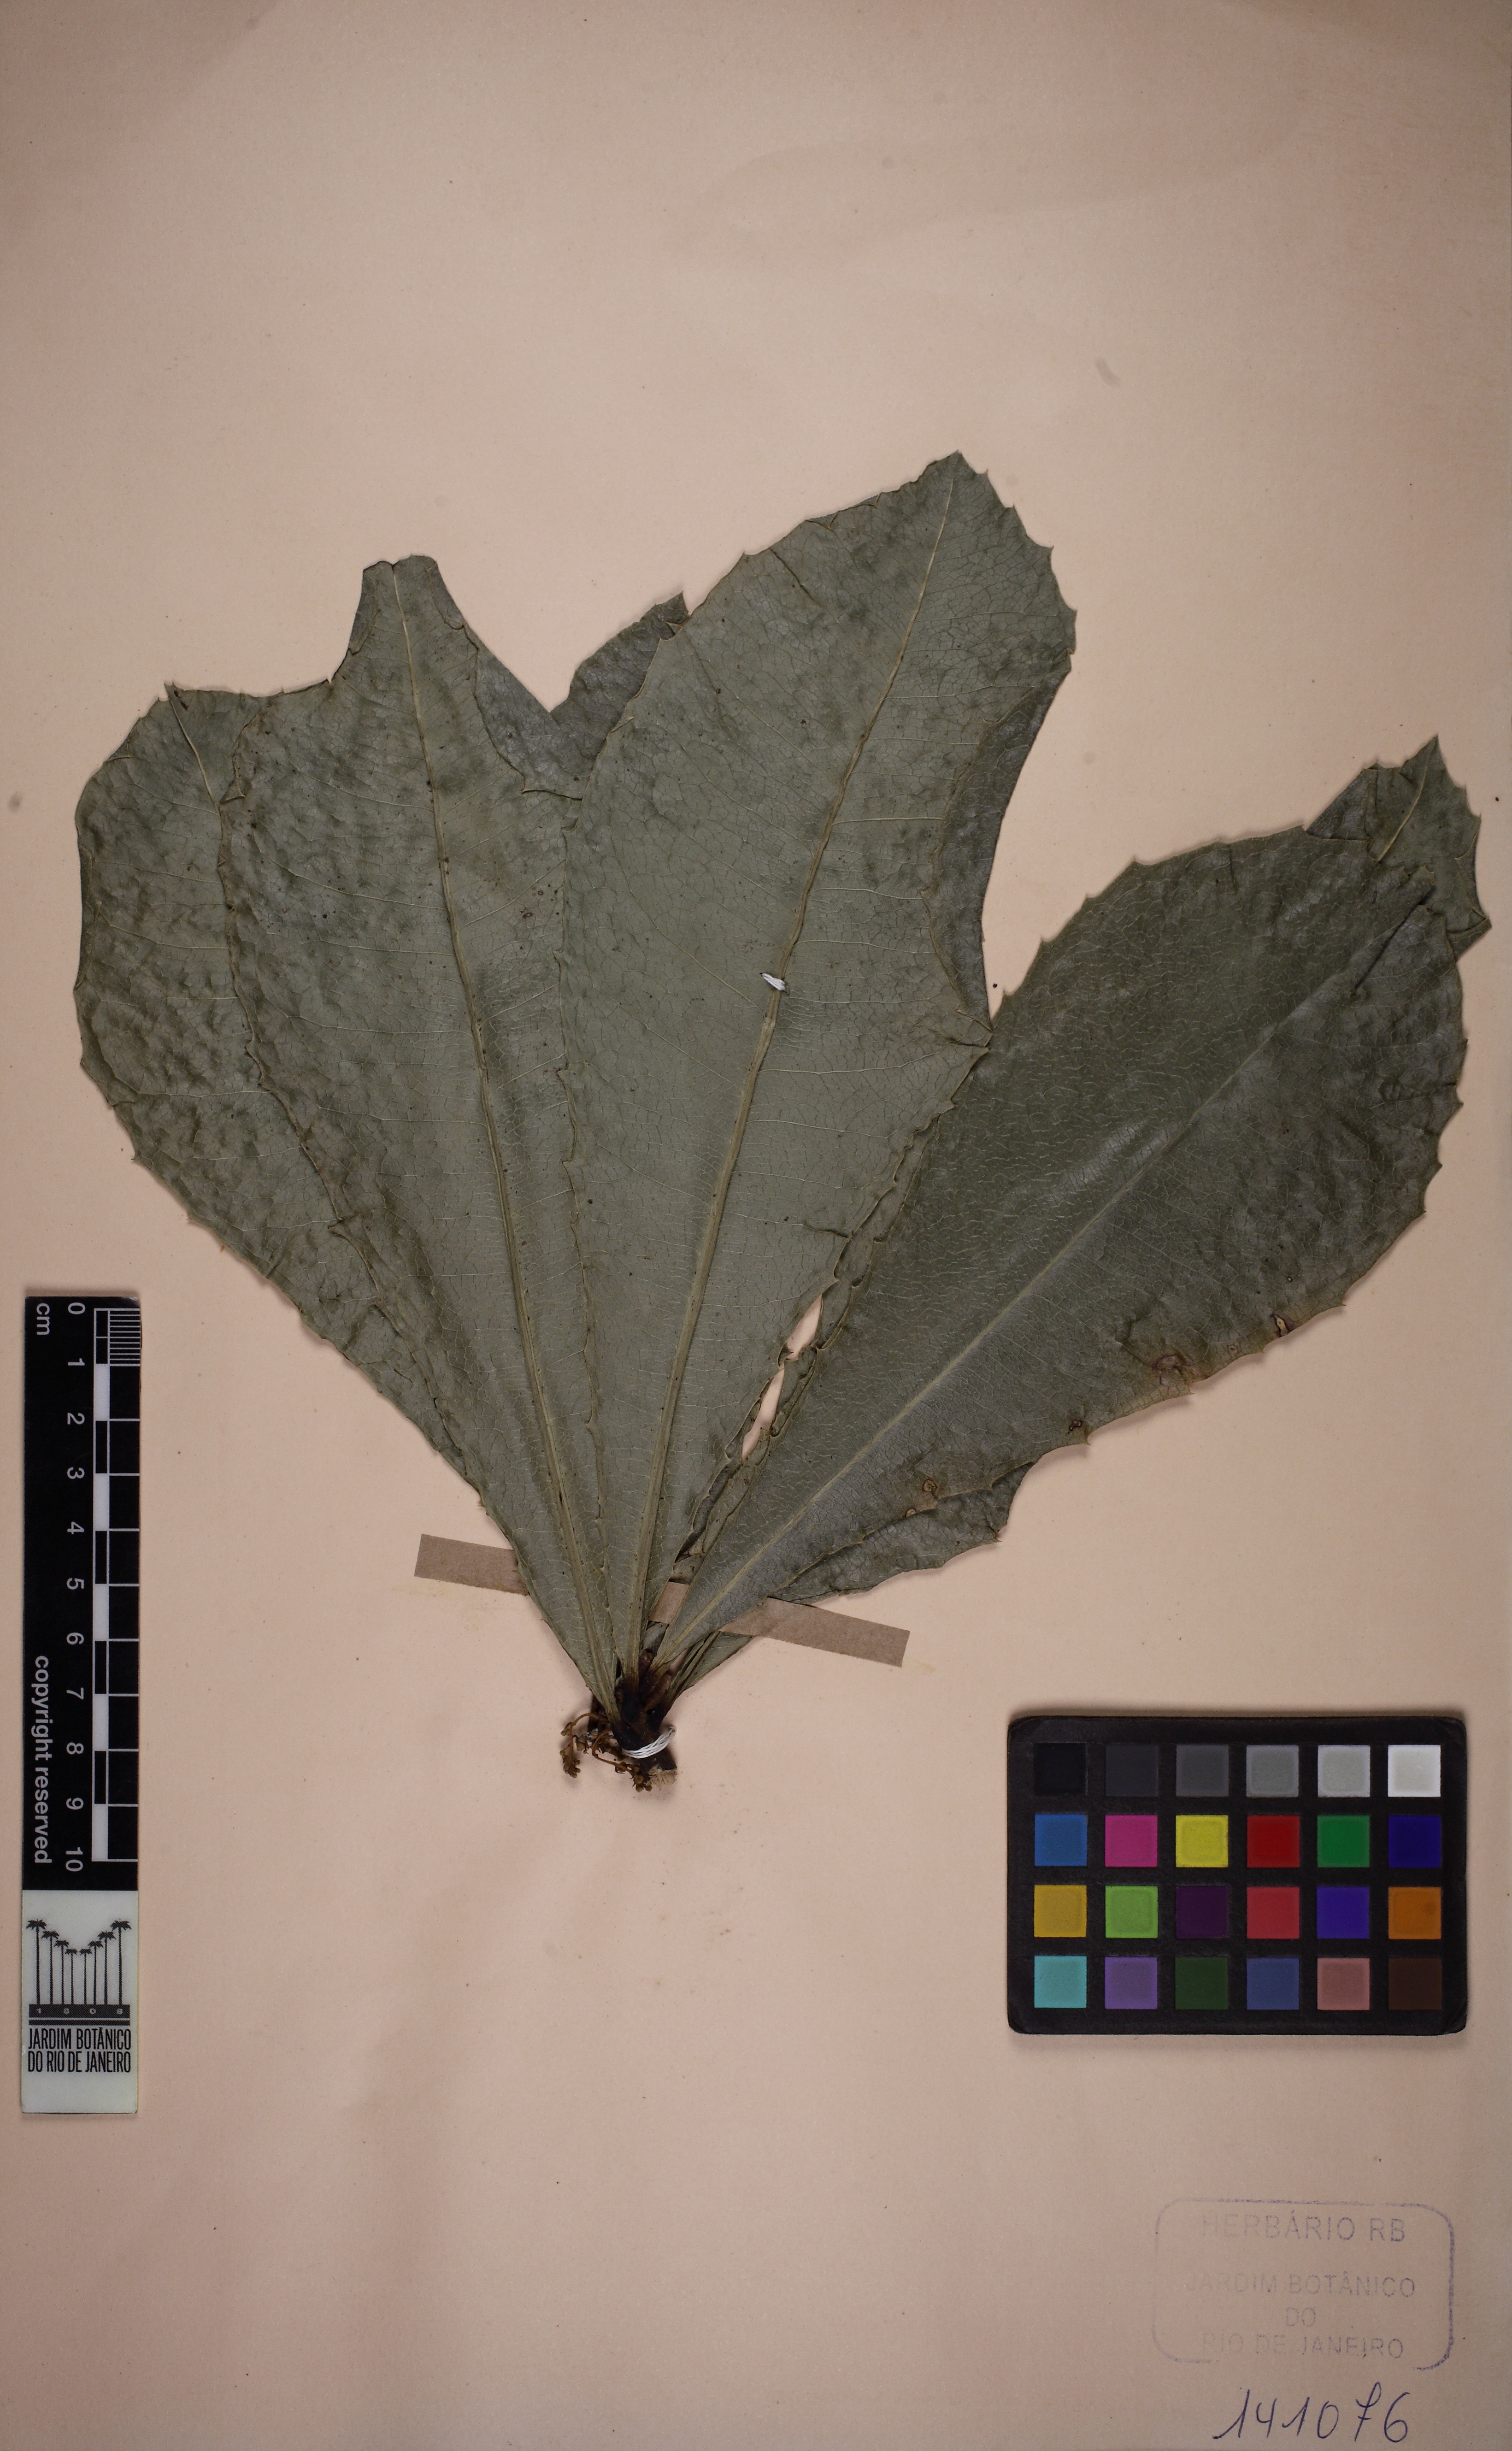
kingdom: Plantae
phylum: Tracheophyta
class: Magnoliopsida
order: Ericales
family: Primulaceae
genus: Clavija
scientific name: Clavija spinosa
